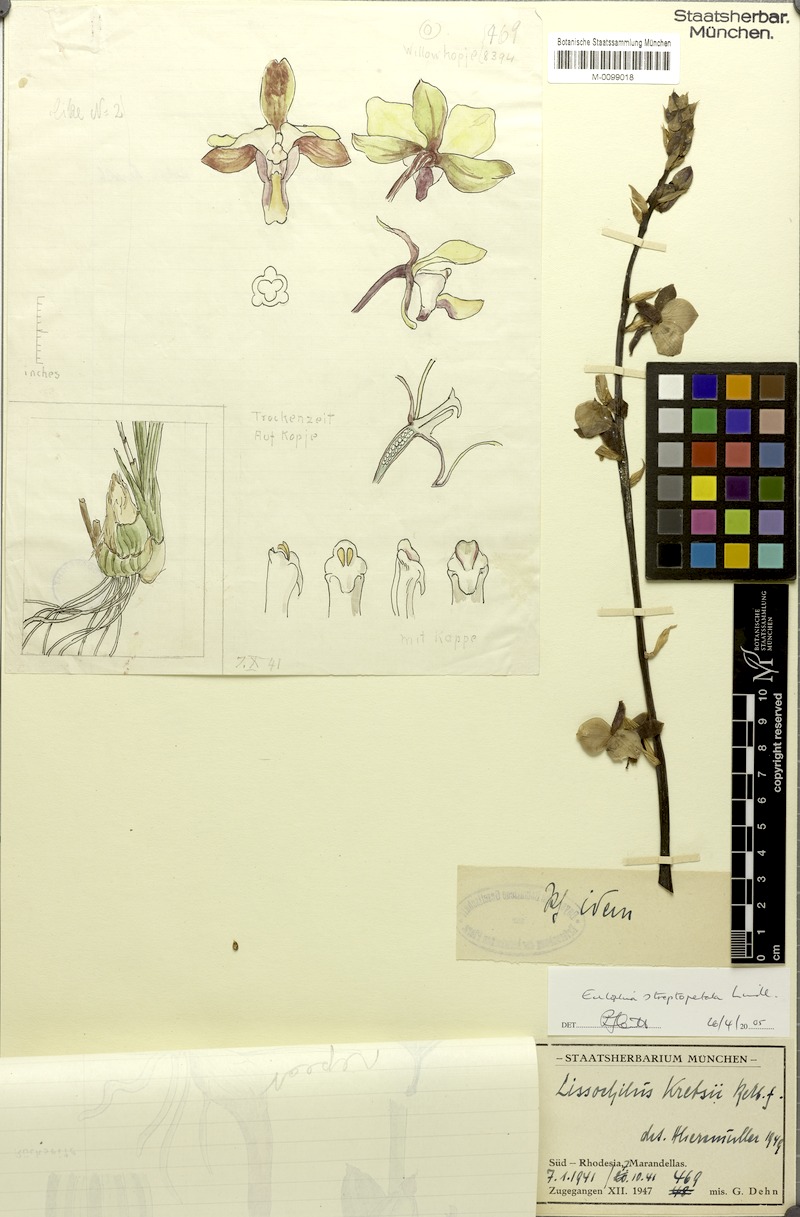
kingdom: Plantae
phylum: Tracheophyta
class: Liliopsida
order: Asparagales
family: Orchidaceae
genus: Eulophia
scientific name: Eulophia streptopetala
